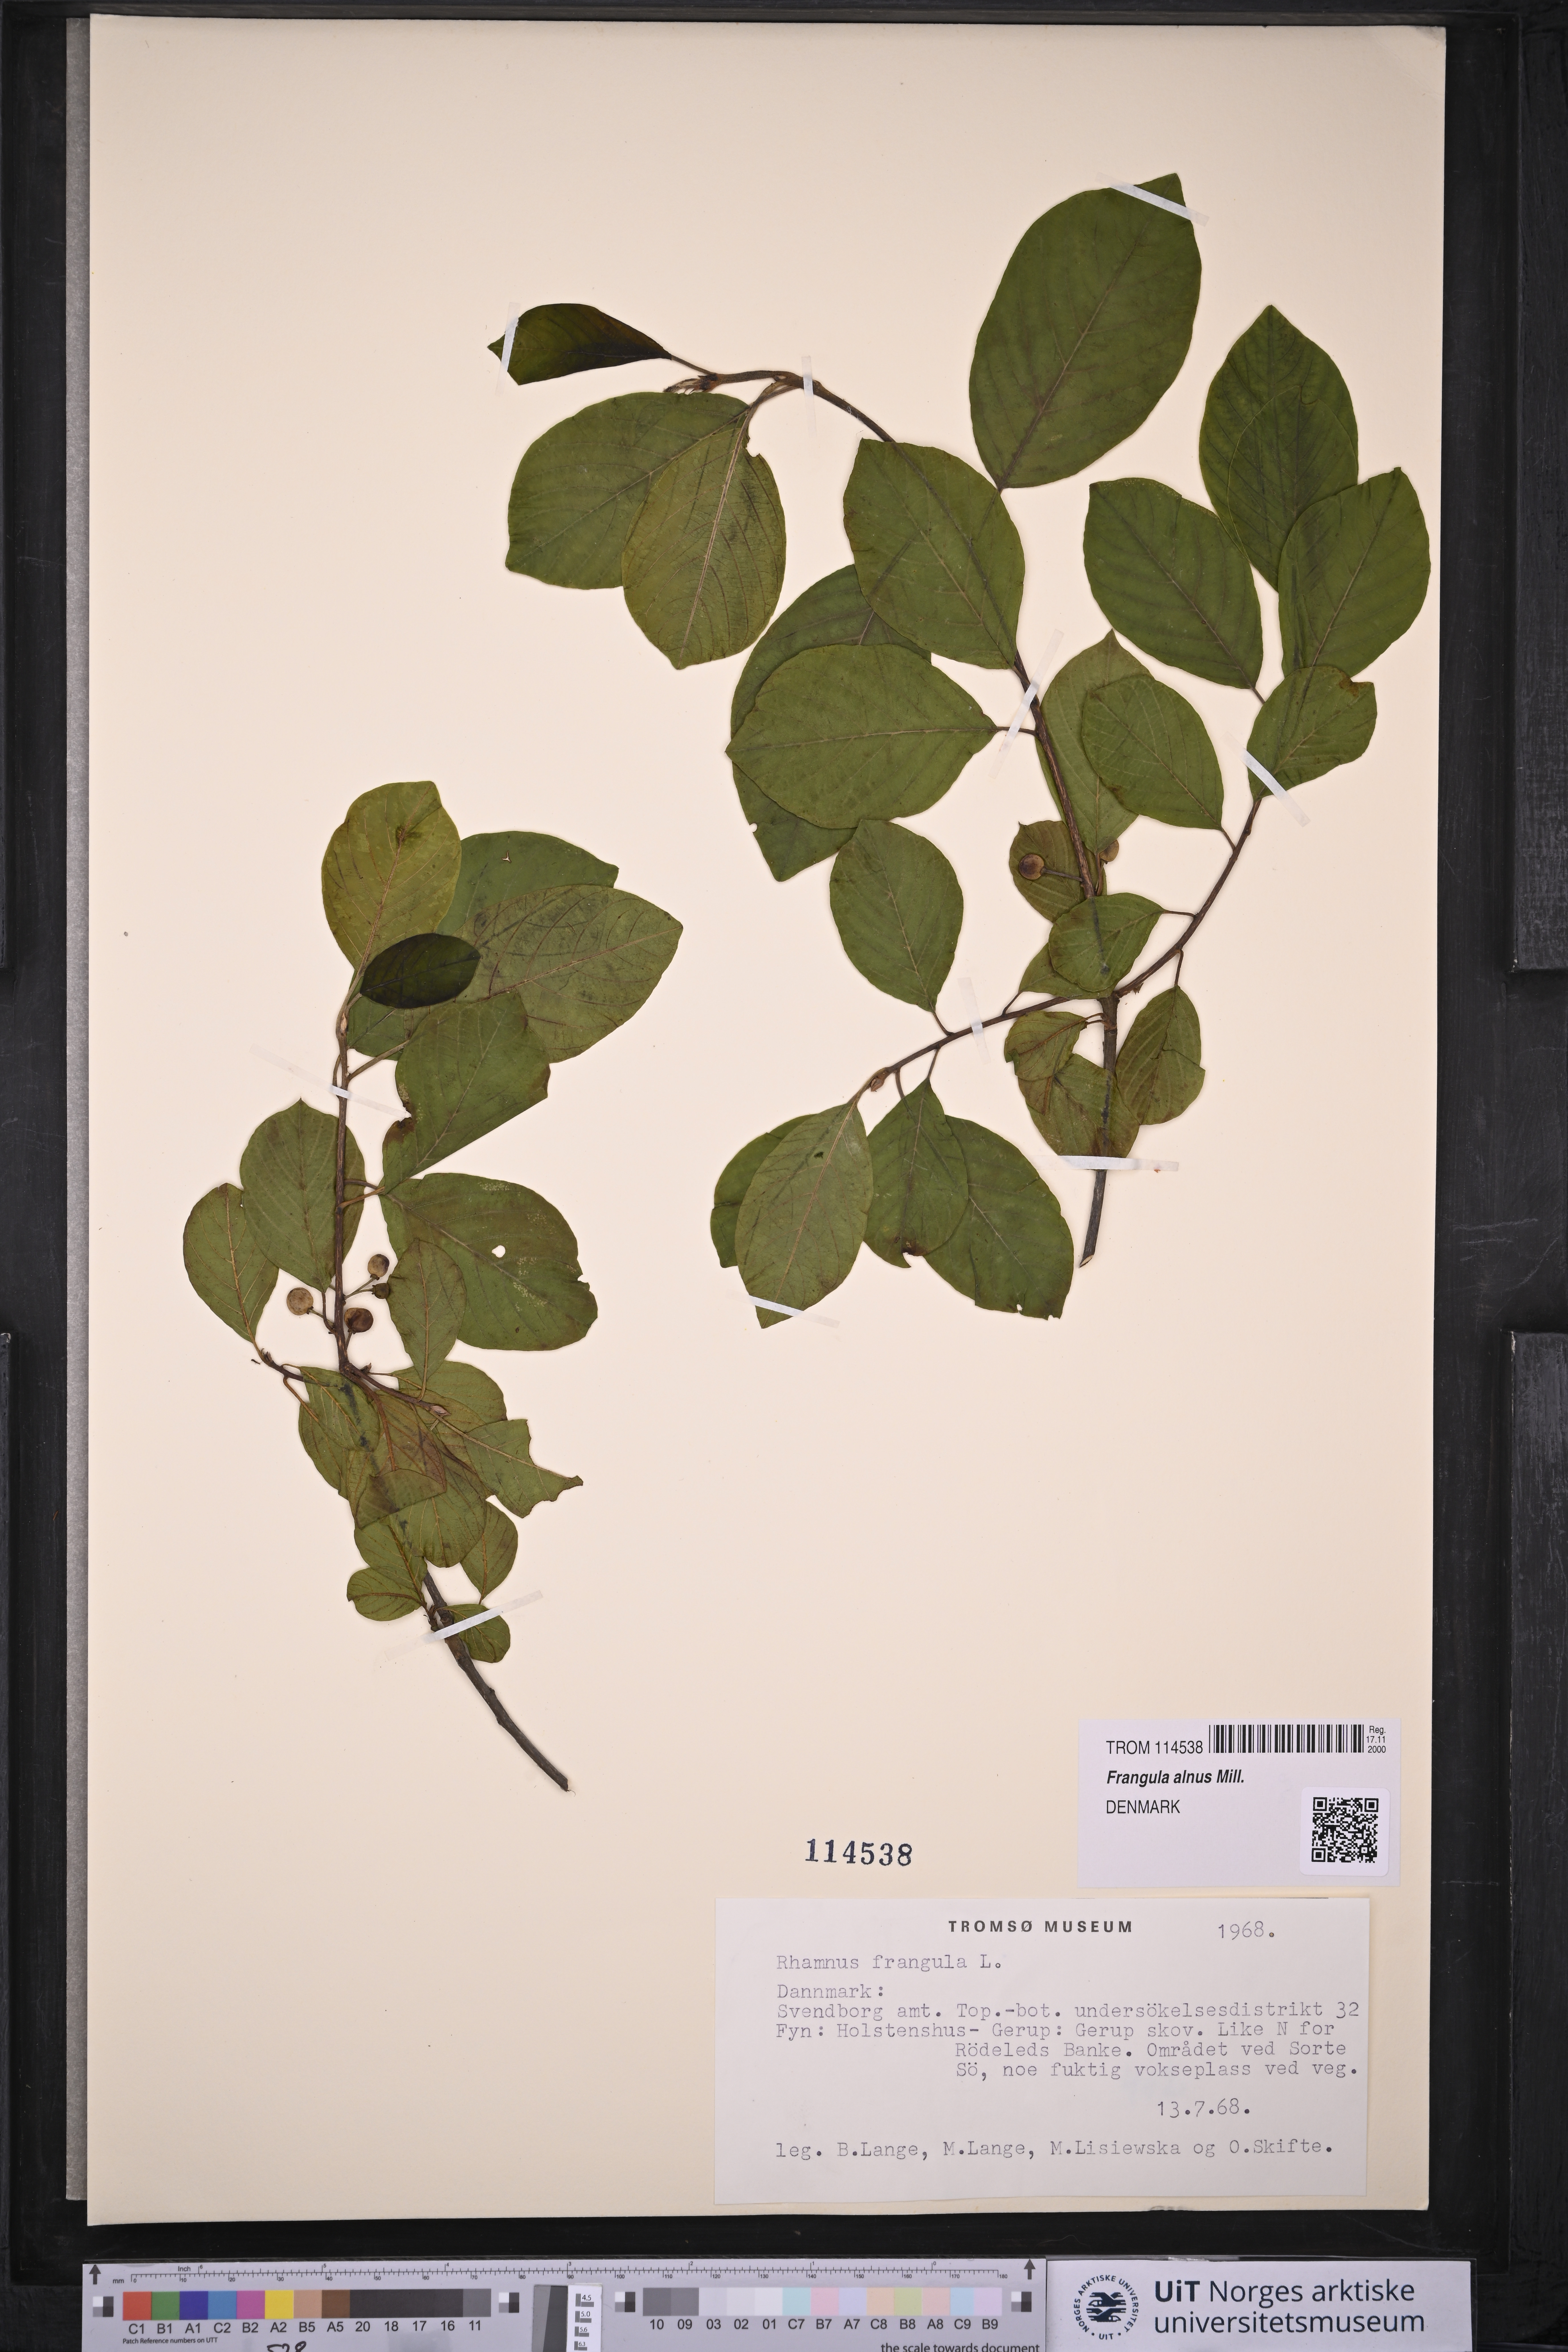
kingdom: Plantae
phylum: Tracheophyta
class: Magnoliopsida
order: Rosales
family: Rhamnaceae
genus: Frangula
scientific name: Frangula alnus
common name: Alder buckthorn
